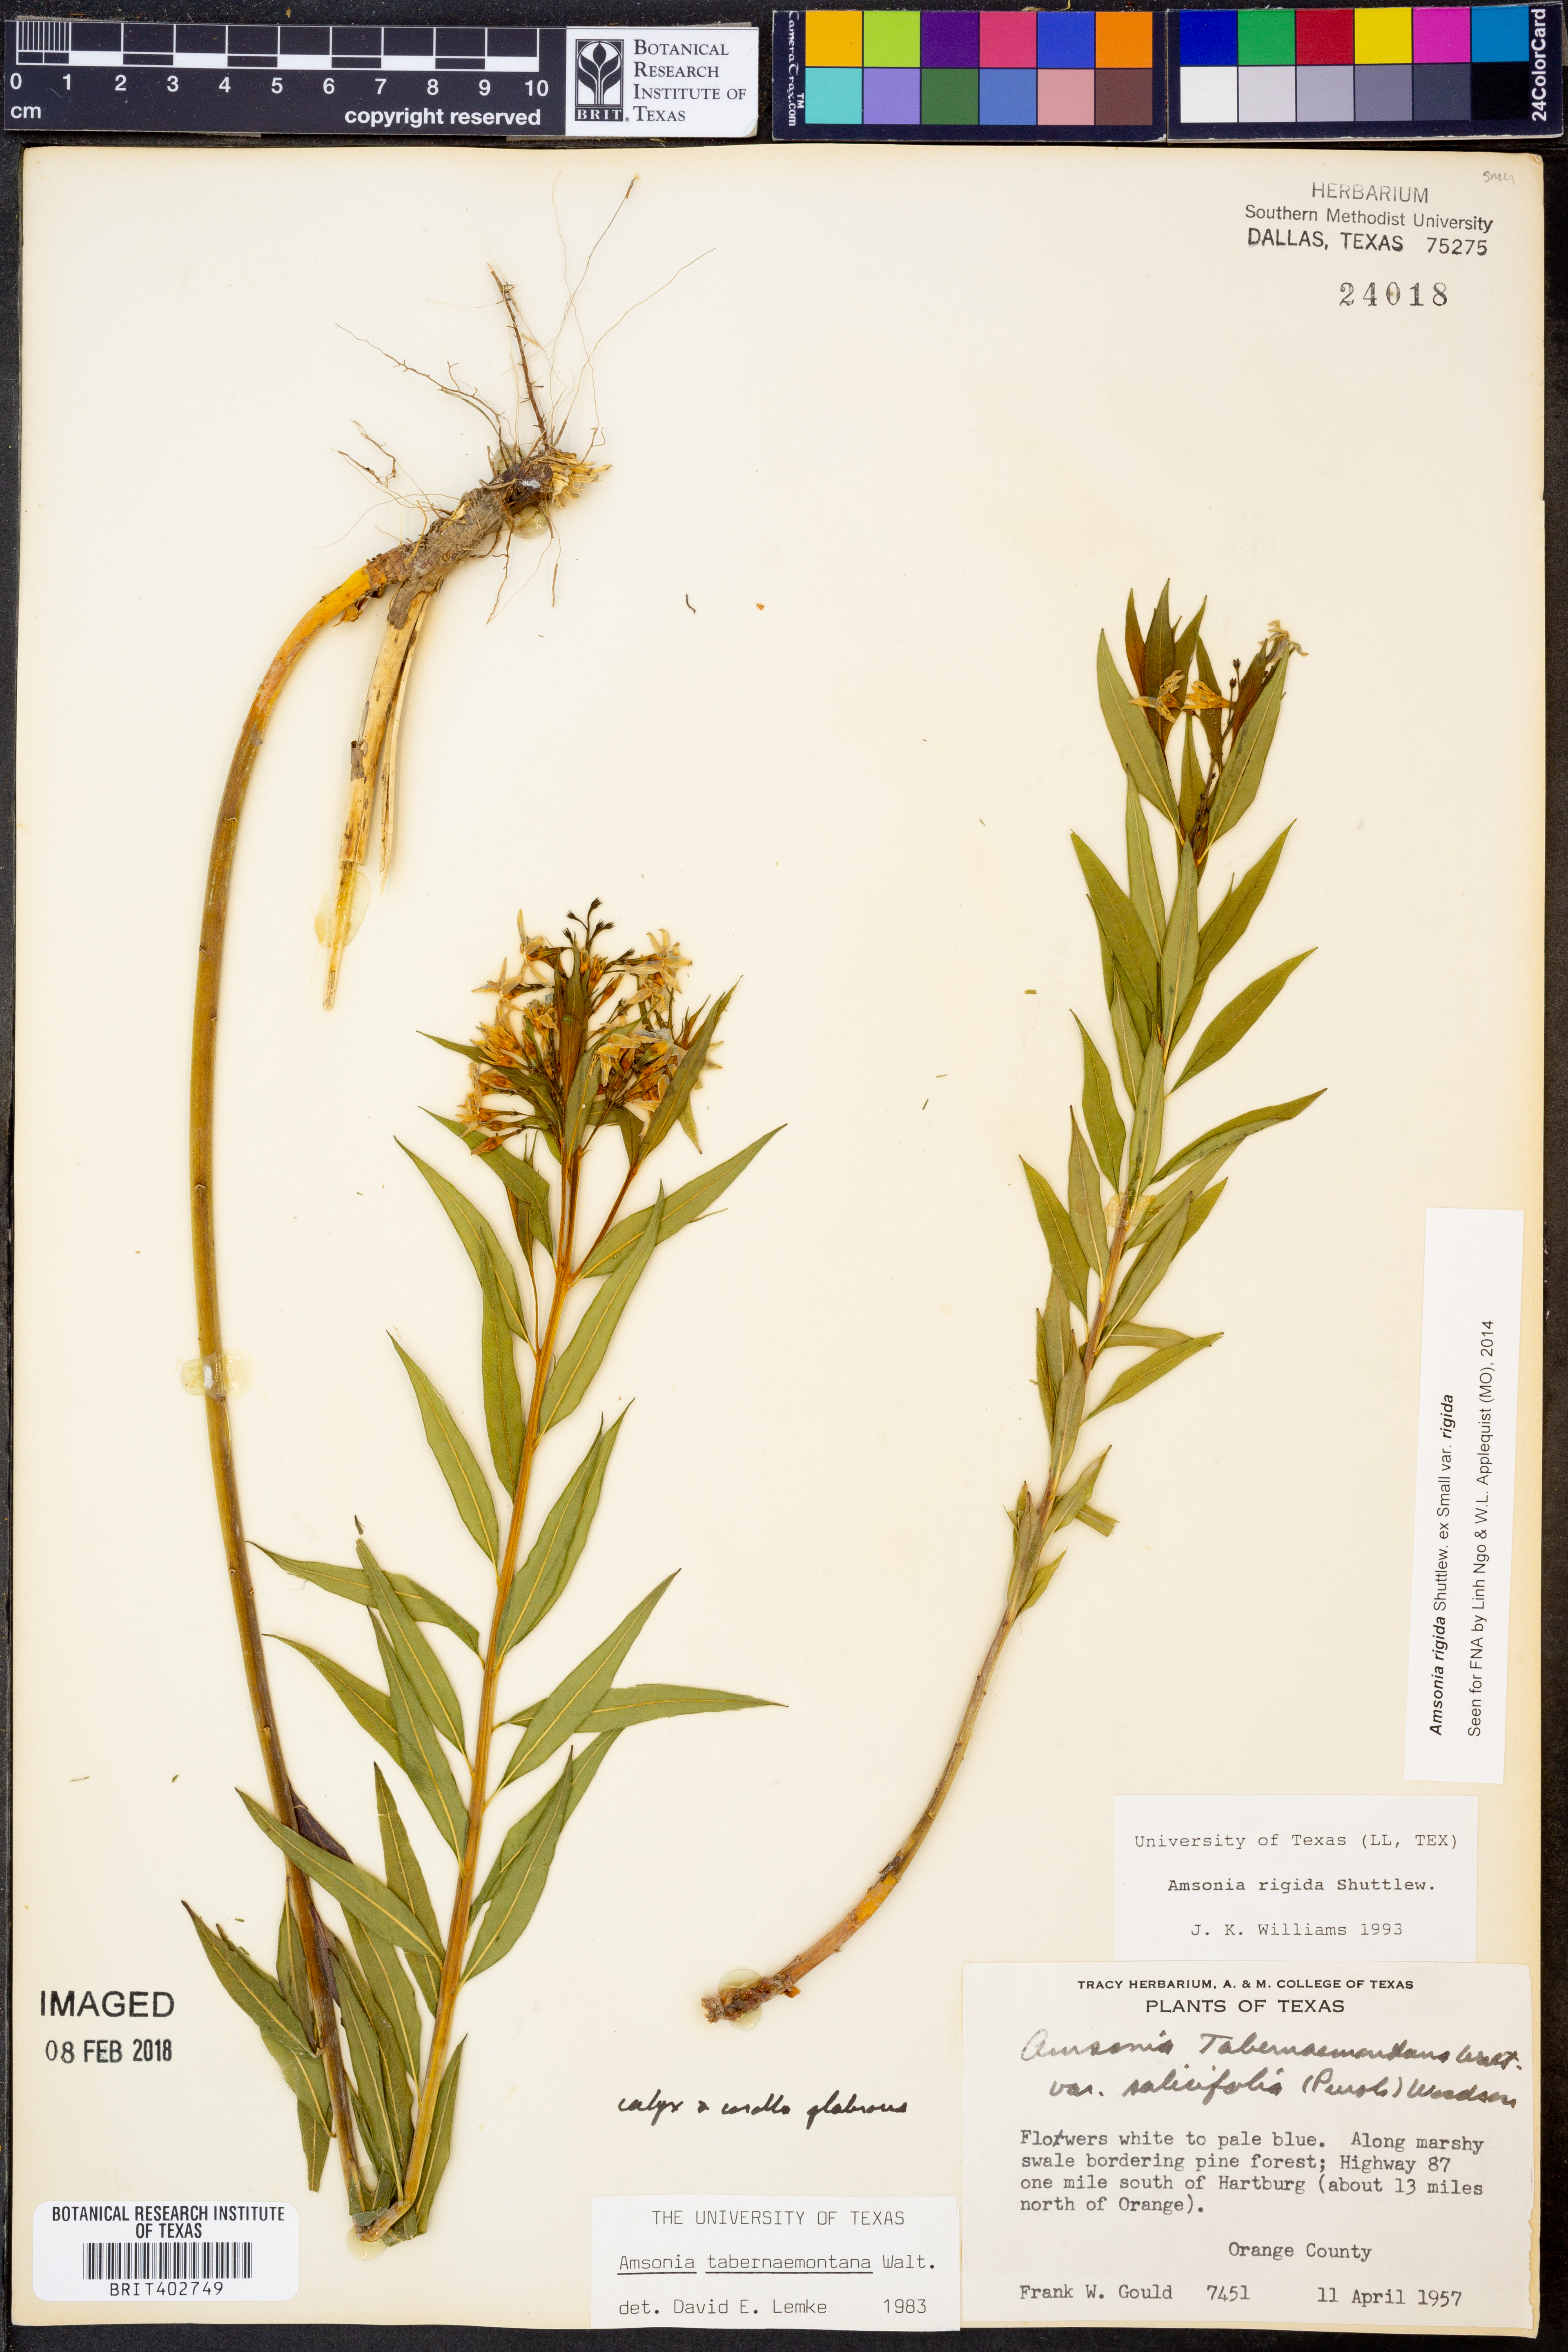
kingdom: Plantae
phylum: Tracheophyta
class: Magnoliopsida
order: Gentianales
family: Apocynaceae
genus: Amsonia
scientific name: Amsonia rigida
